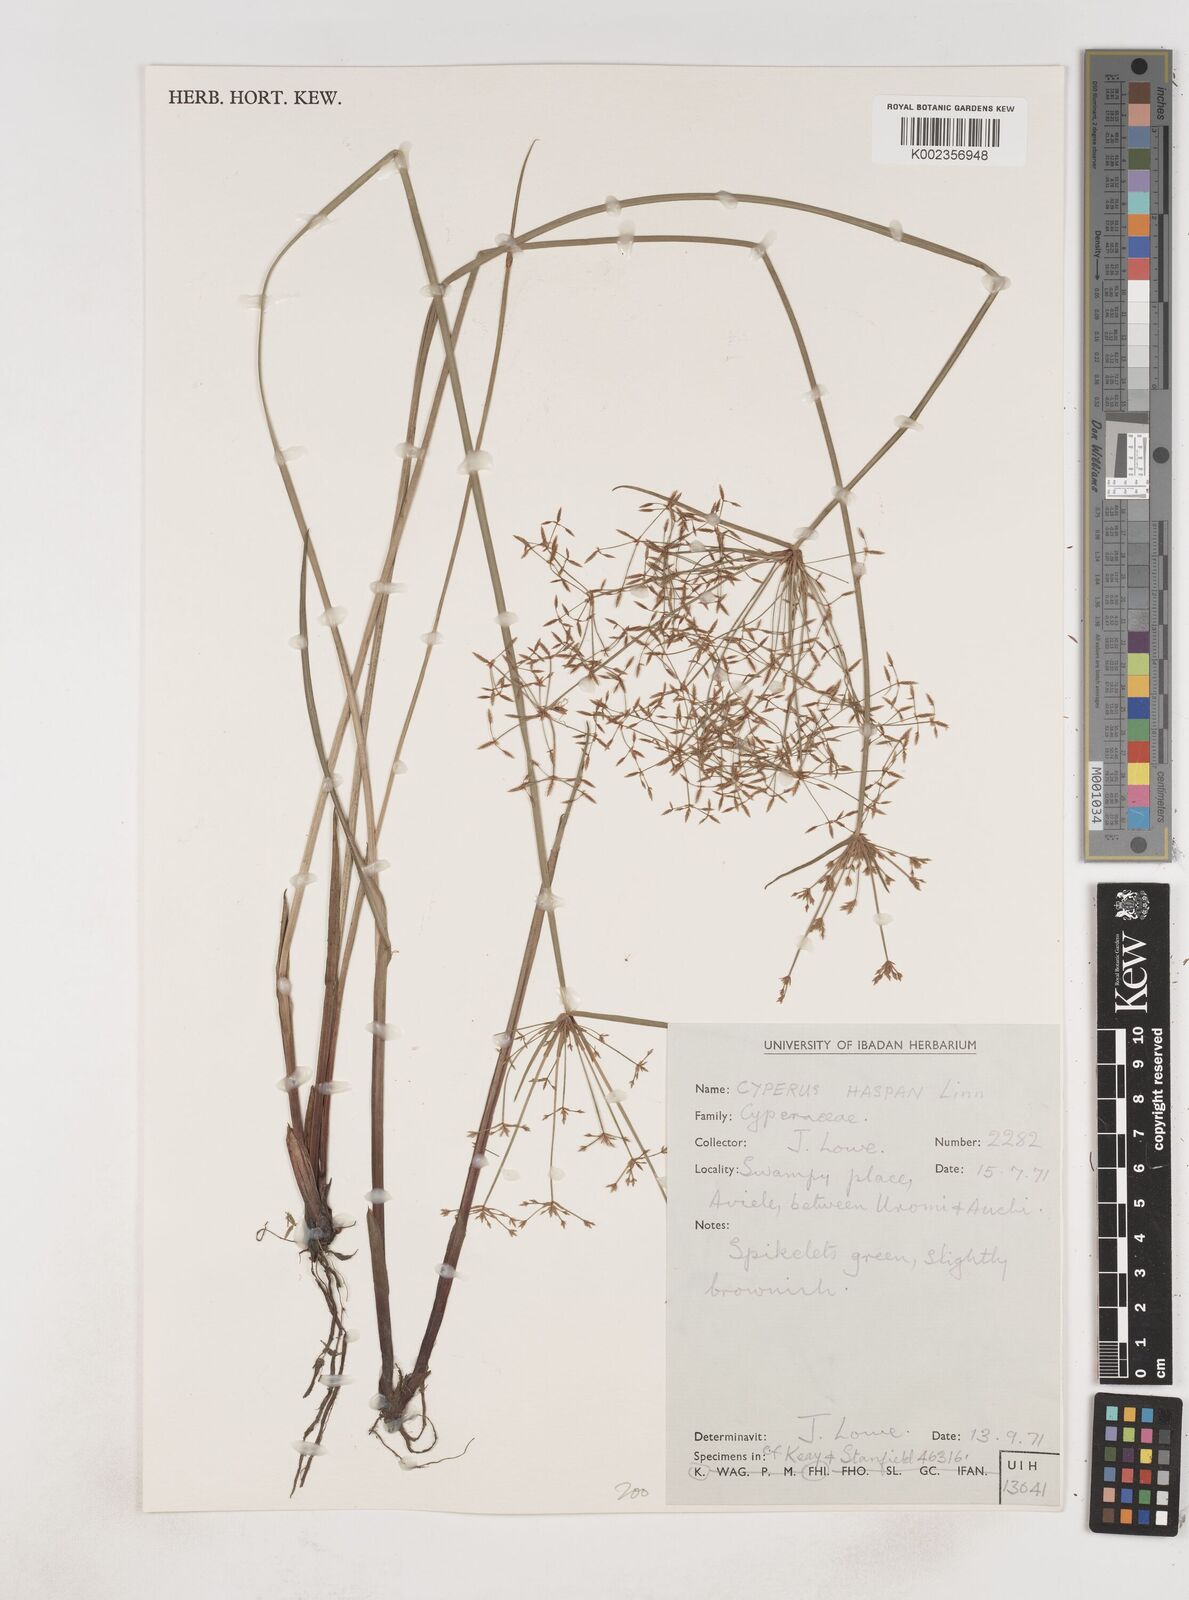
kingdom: Plantae
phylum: Tracheophyta
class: Liliopsida
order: Poales
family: Cyperaceae
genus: Cyperus
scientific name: Cyperus haspan
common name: Haspan flatsedge
